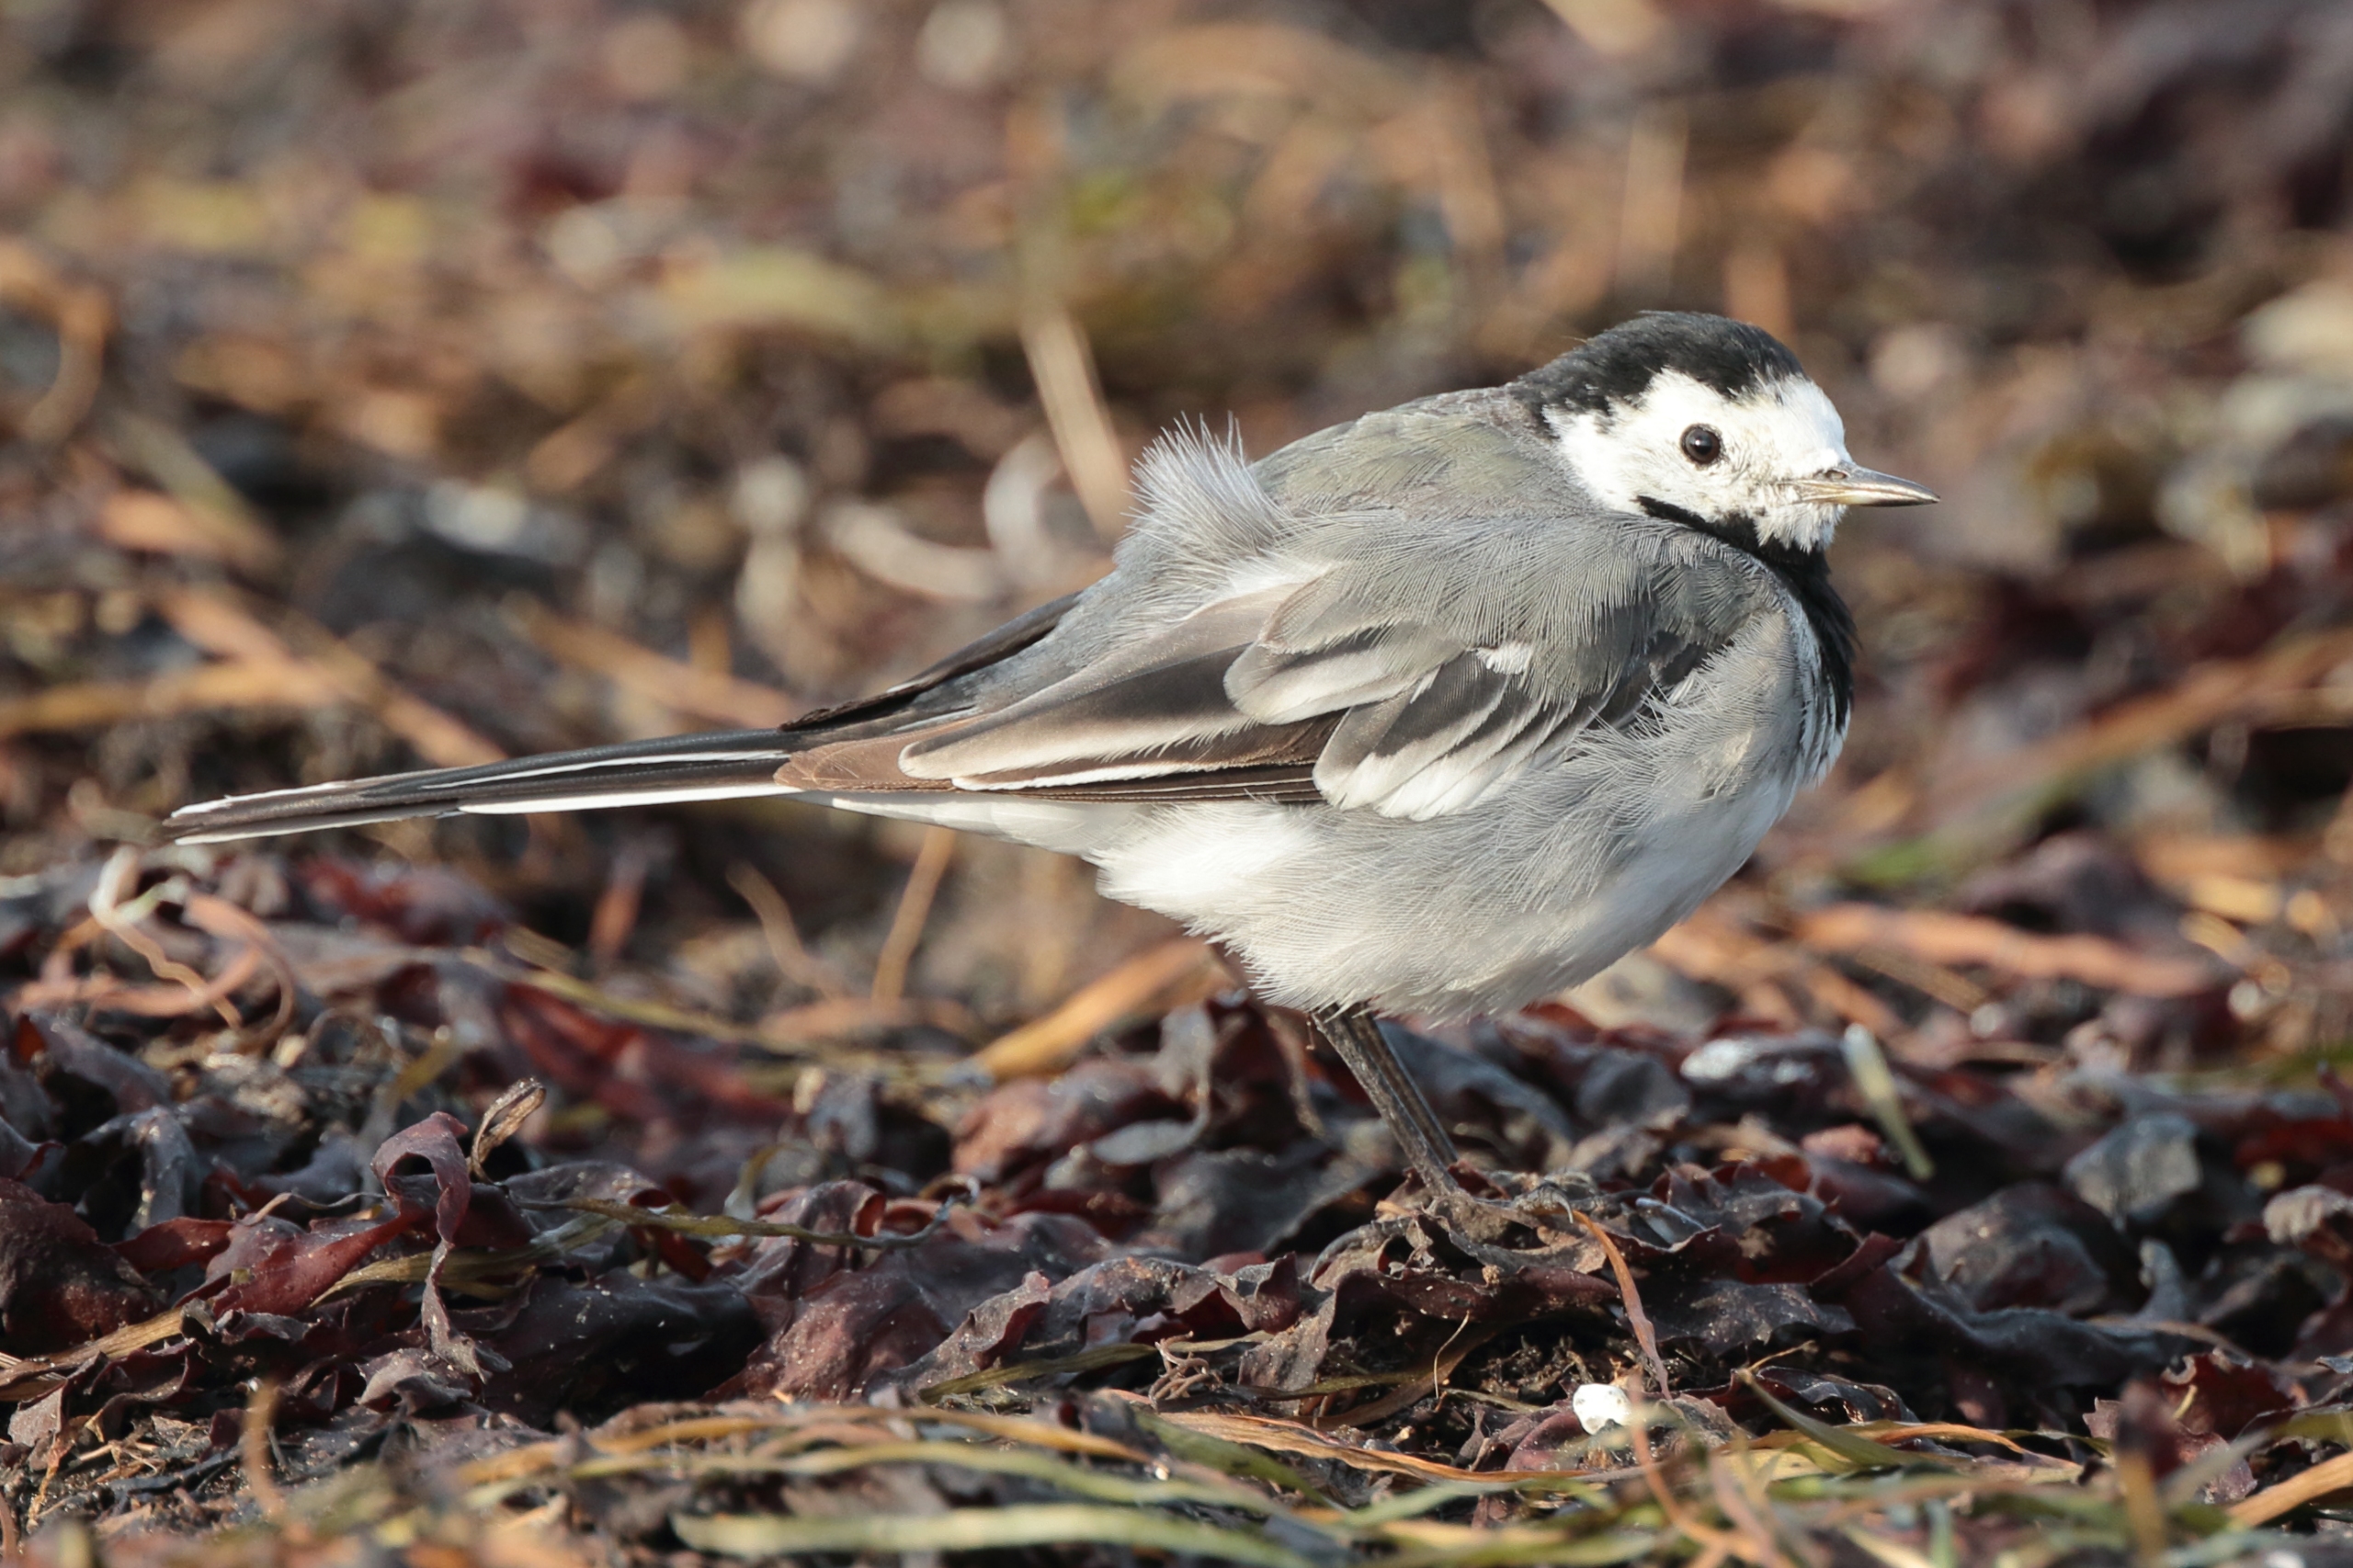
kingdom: Animalia
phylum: Chordata
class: Aves
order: Passeriformes
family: Motacillidae
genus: Motacilla
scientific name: Motacilla alba
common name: Hvid vipstjert
